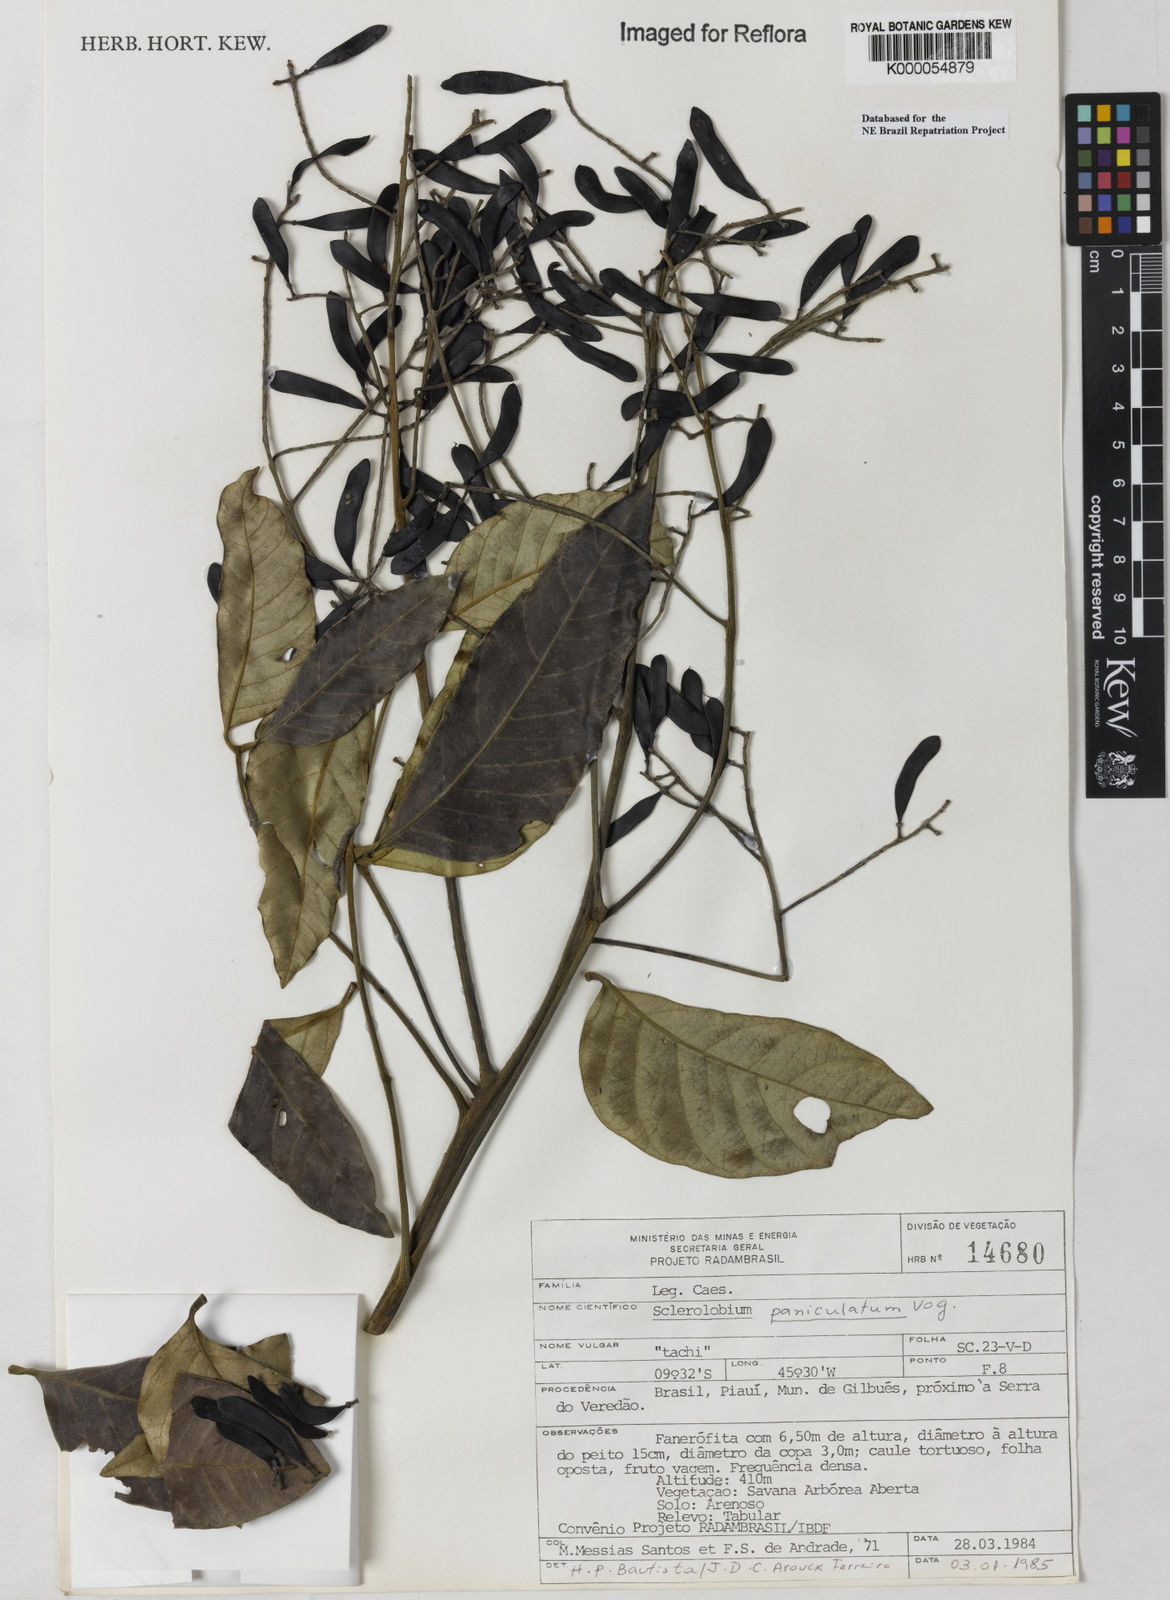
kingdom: Plantae
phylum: Tracheophyta
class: Magnoliopsida
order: Fabales
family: Fabaceae
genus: Tachigali
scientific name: Tachigali vulgaris
